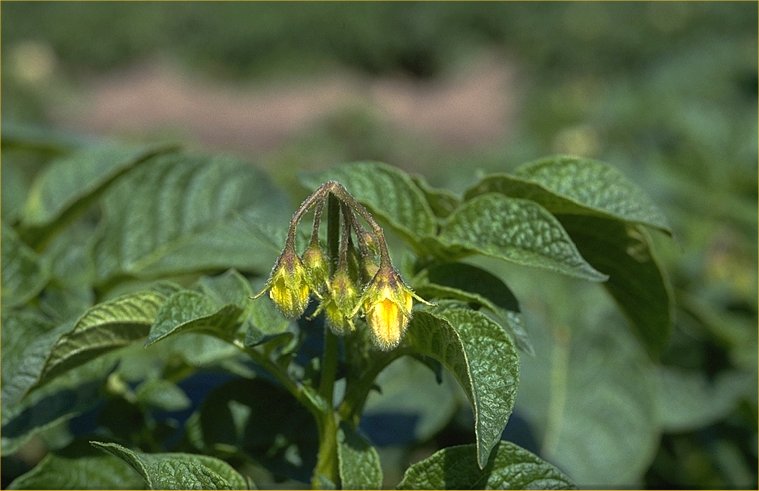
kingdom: Plantae
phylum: Tracheophyta
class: Magnoliopsida
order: Solanales
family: Solanaceae
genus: Solanum
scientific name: Solanum tuberosum
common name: Potato
